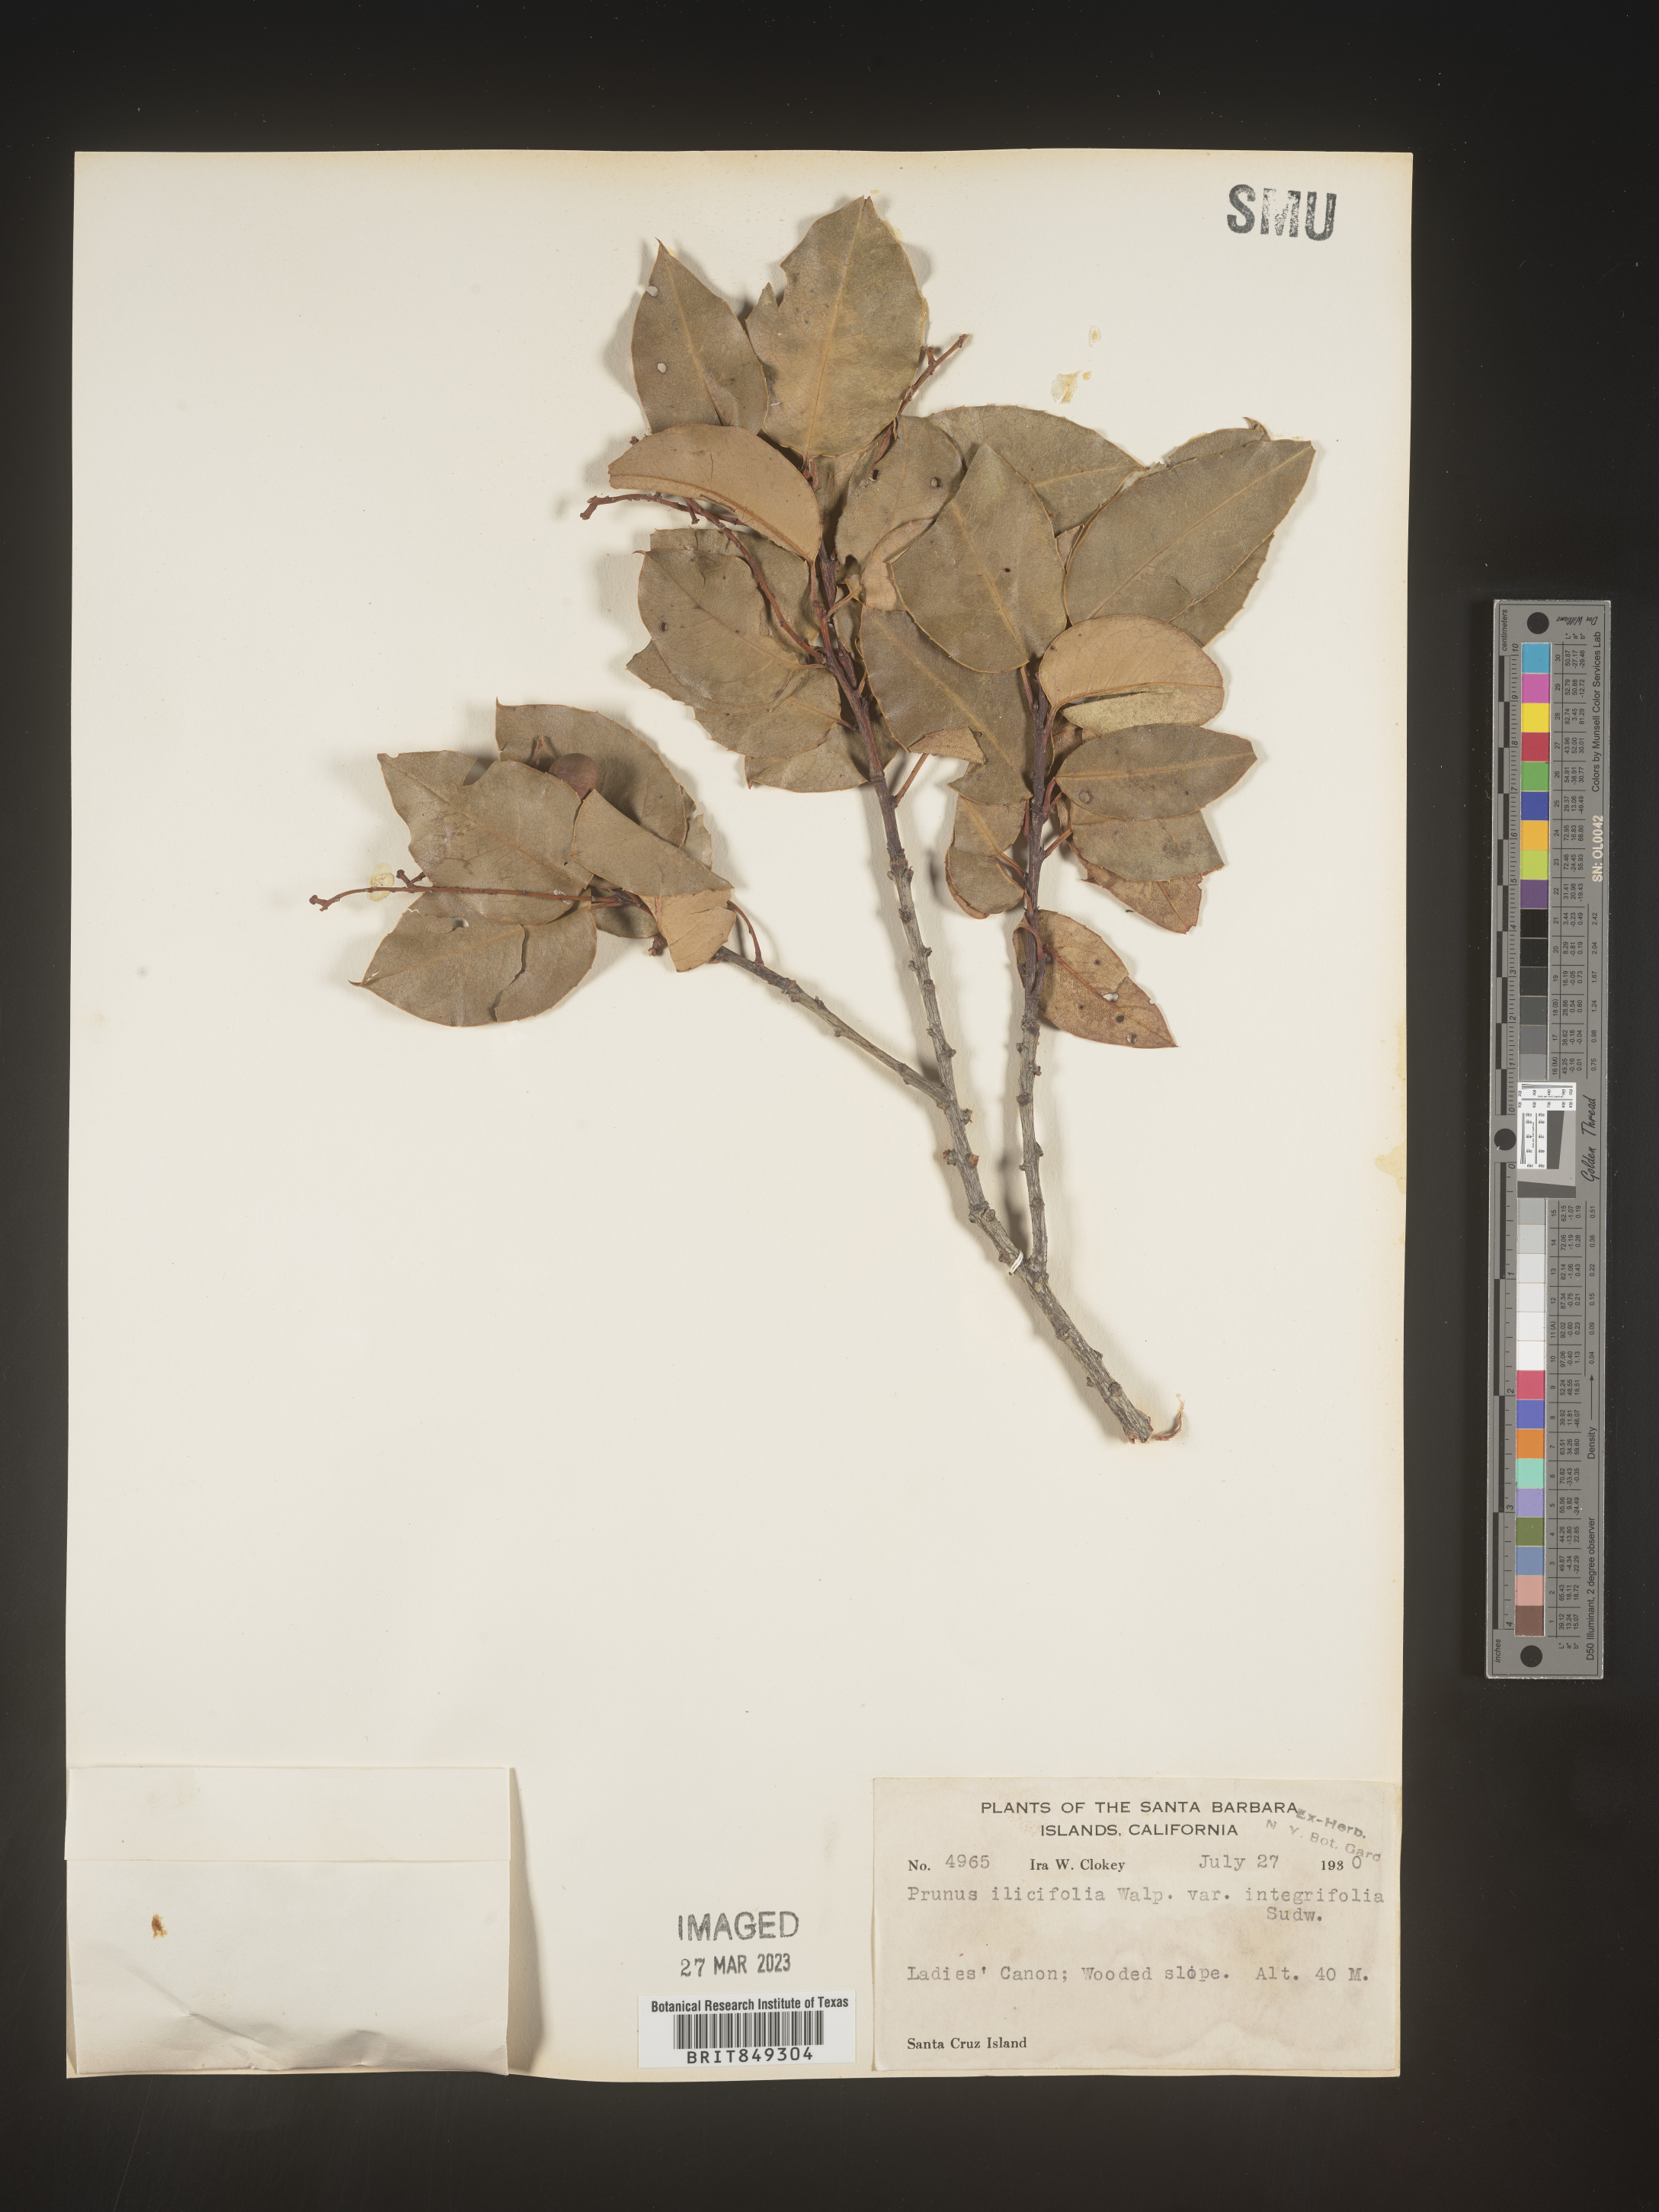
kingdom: Plantae
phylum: Tracheophyta
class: Magnoliopsida
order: Rosales
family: Rosaceae
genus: Prunus
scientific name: Prunus
